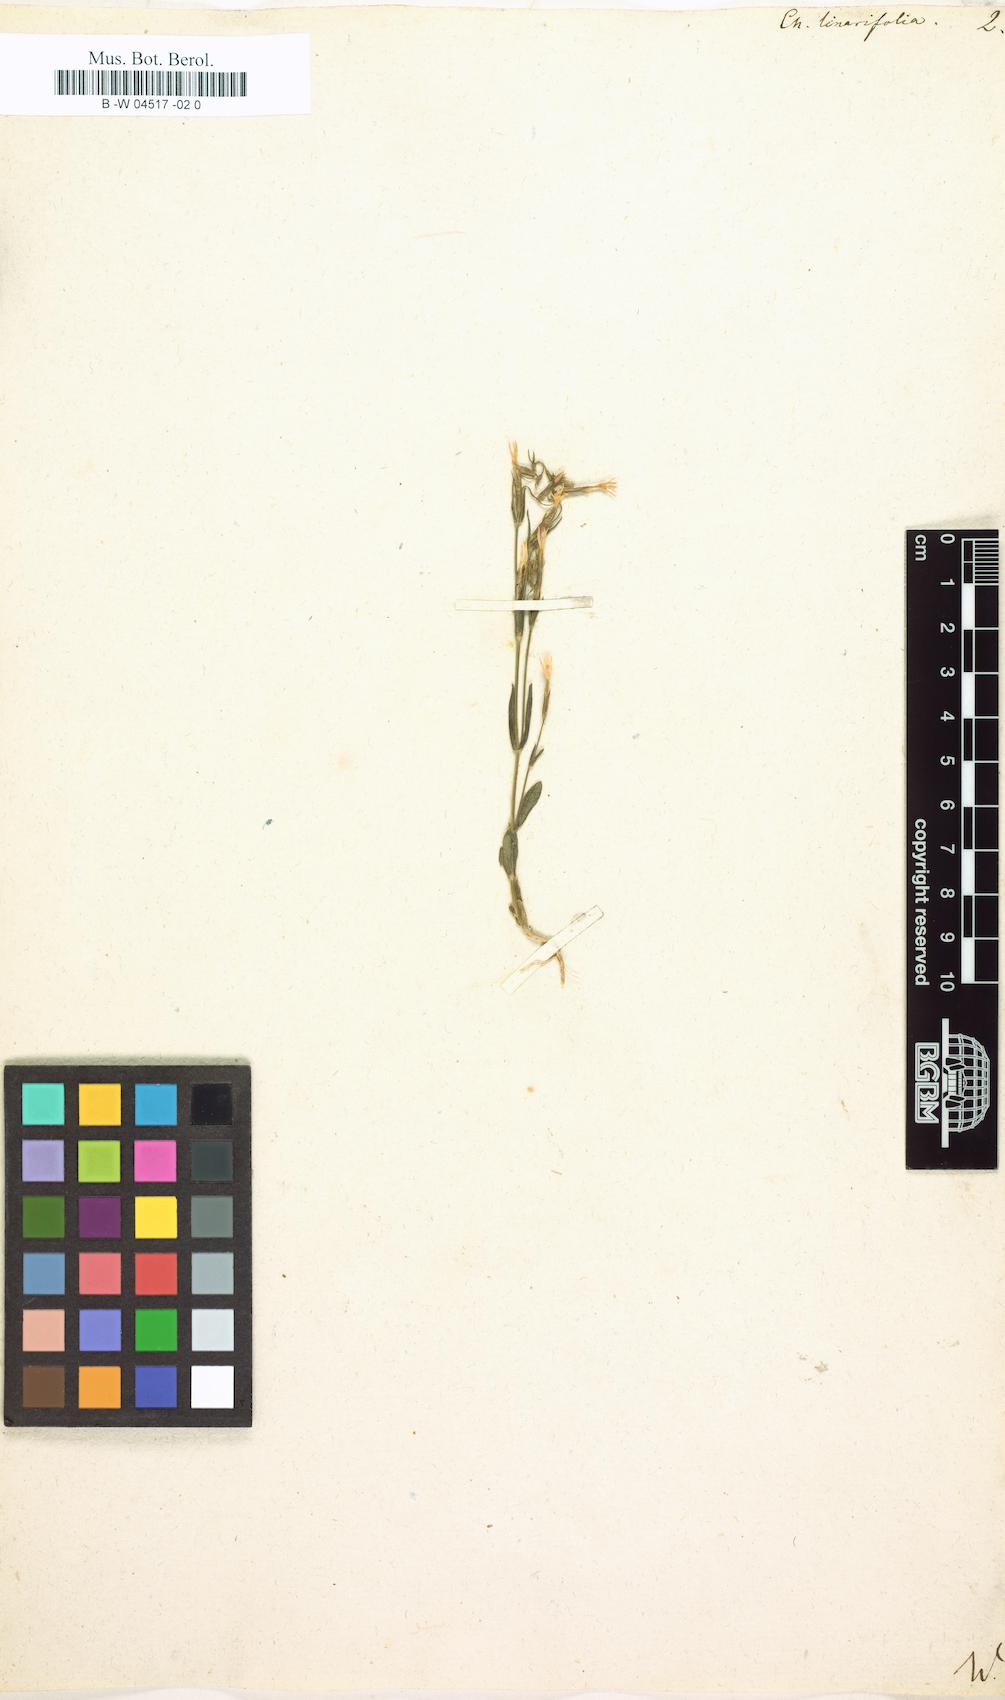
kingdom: Plantae
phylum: Tracheophyta
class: Magnoliopsida
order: Gentianales
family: Gentianaceae
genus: Centaurium
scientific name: Centaurium quadrifolium
